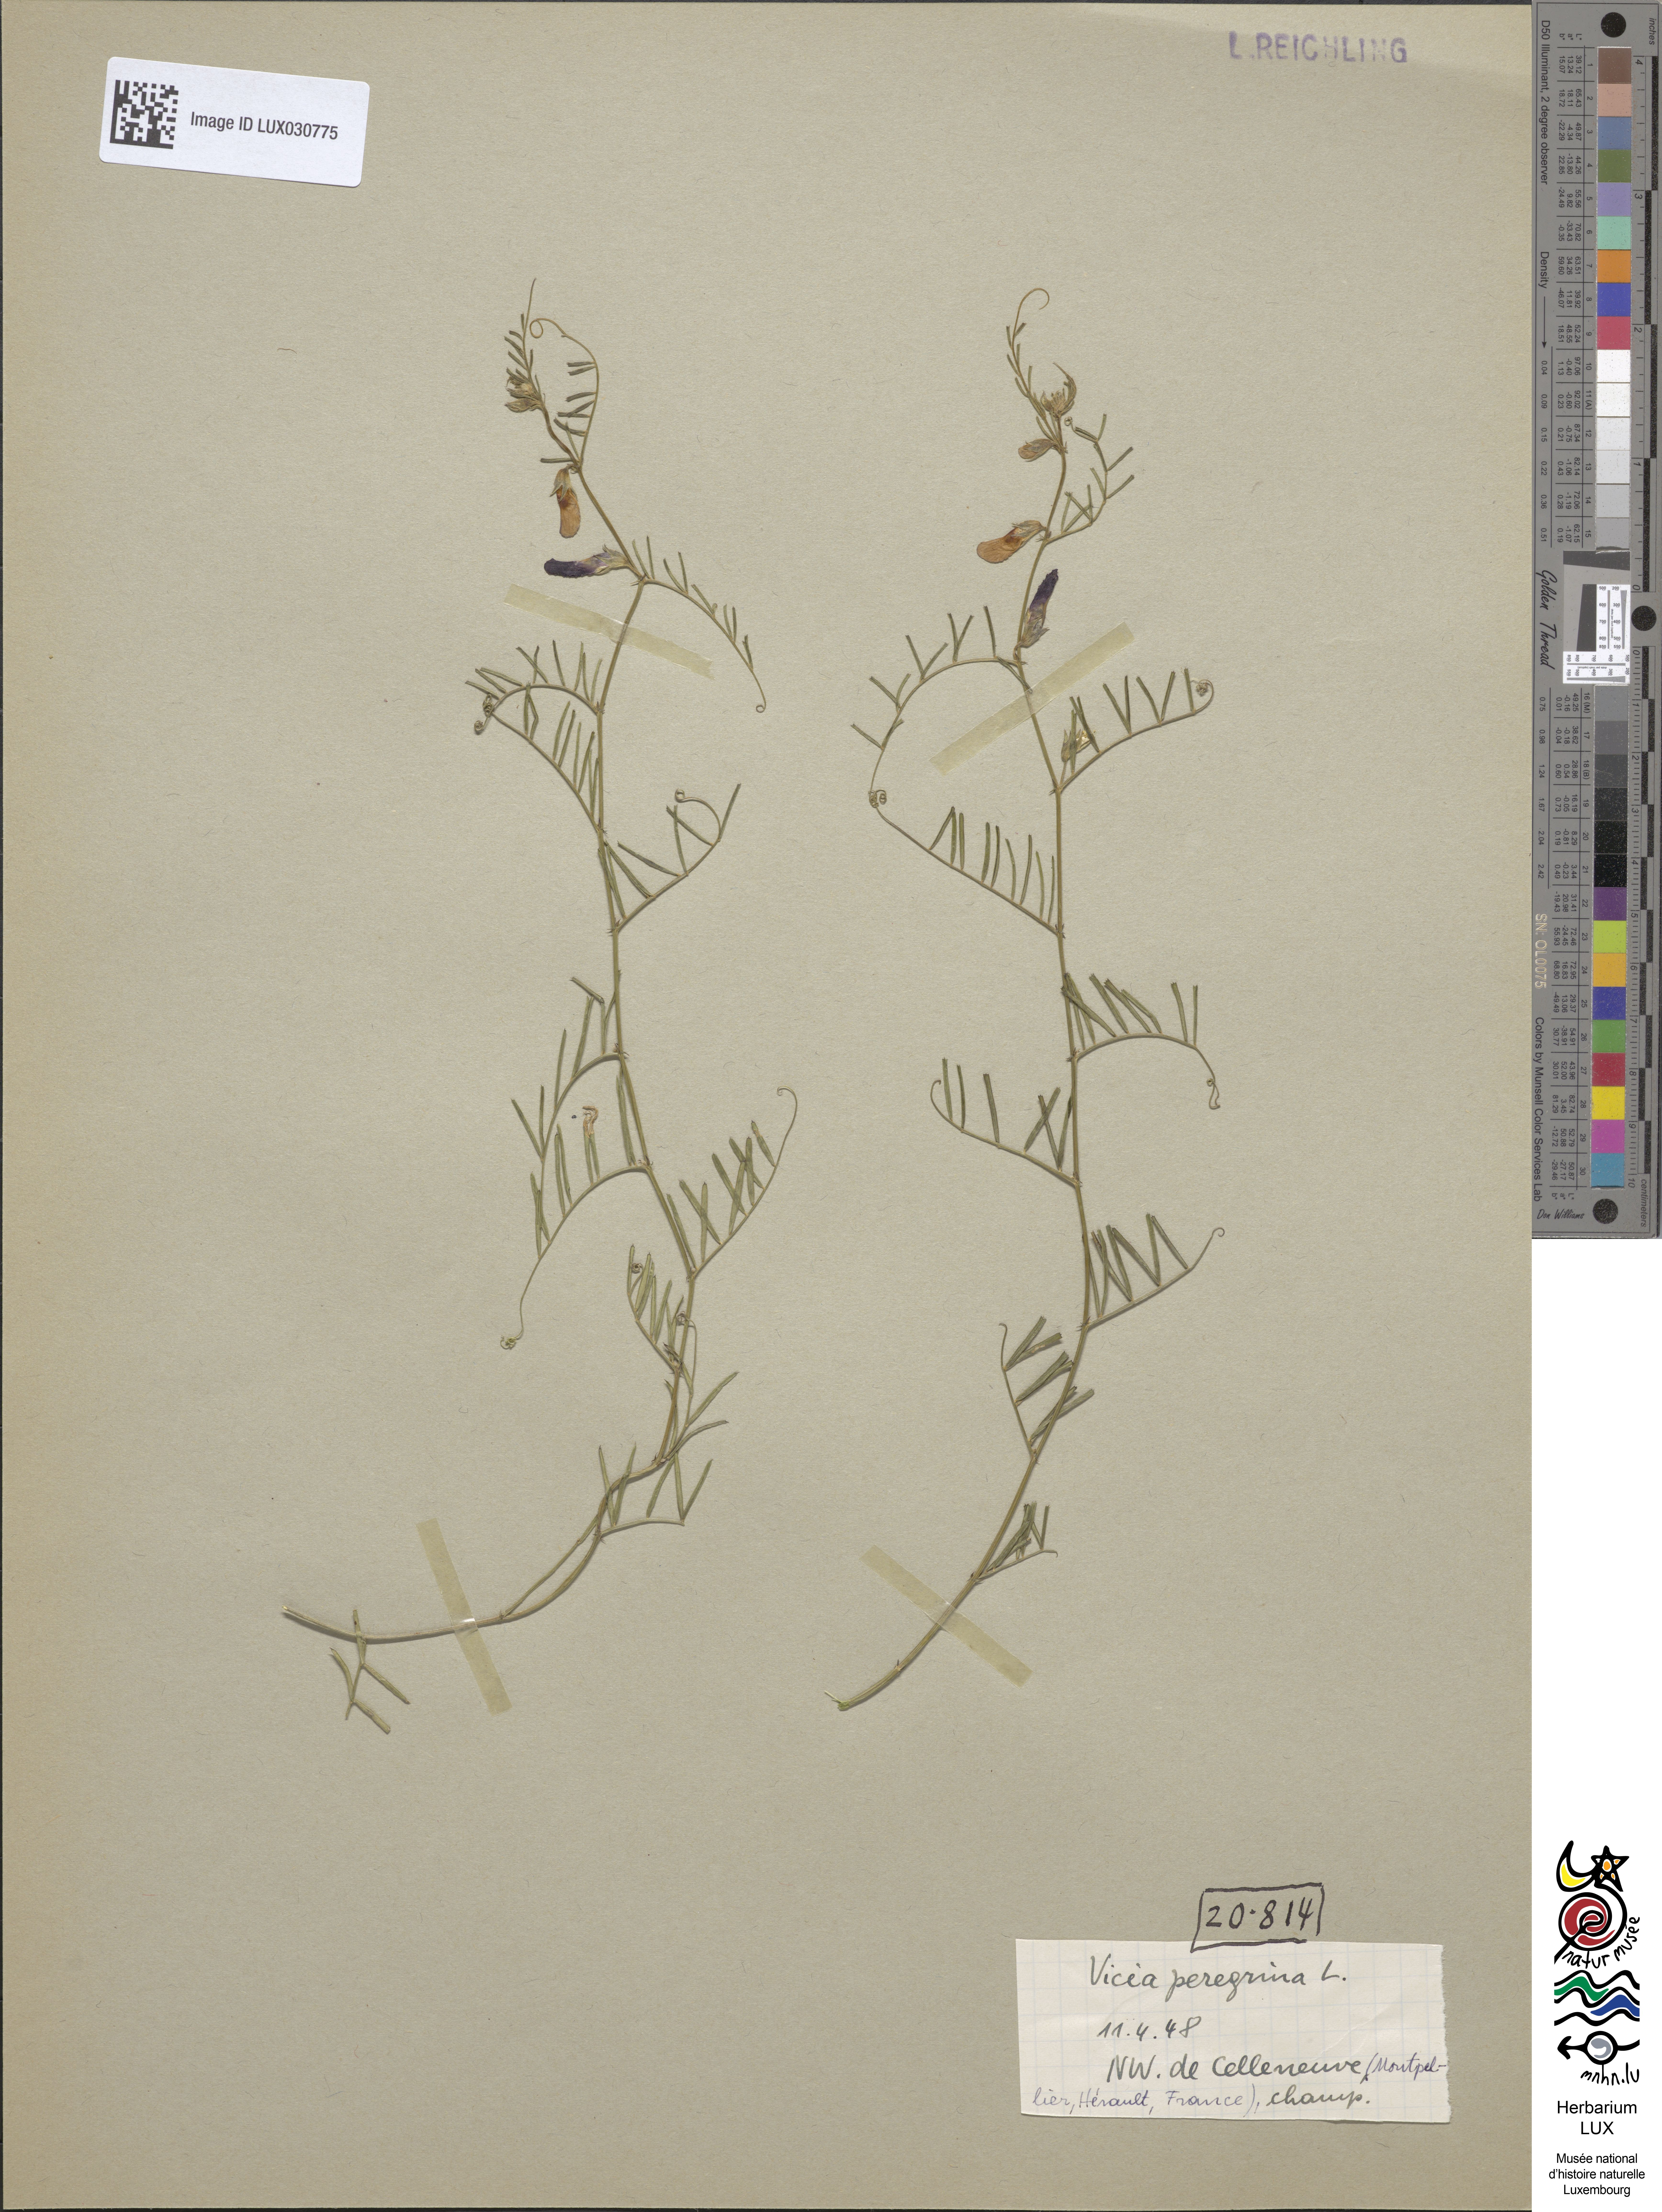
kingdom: Plantae
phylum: Tracheophyta
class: Magnoliopsida
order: Fabales
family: Fabaceae
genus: Vicia
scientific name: Vicia peregrina
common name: Broad-pod vetch
